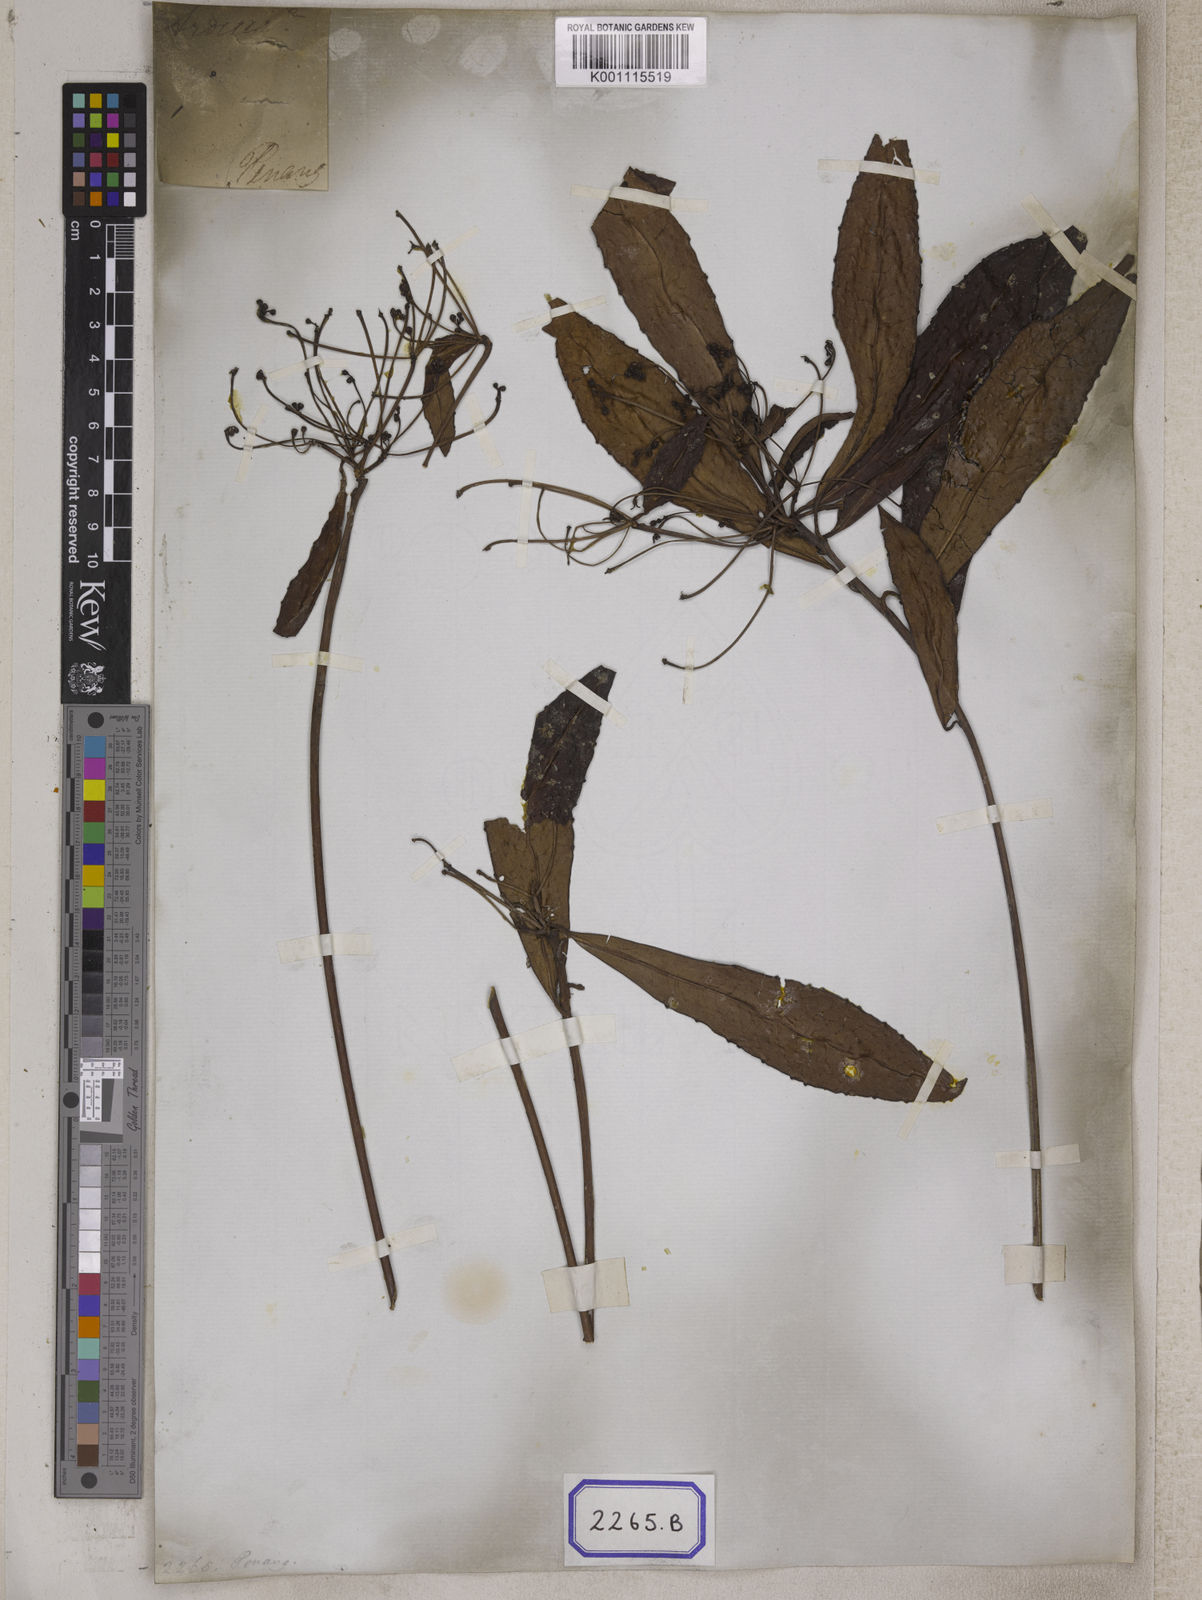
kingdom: Plantae
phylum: Tracheophyta
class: Magnoliopsida
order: Ericales
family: Primulaceae
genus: Amblyanthus
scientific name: Amblyanthus glandulosus
